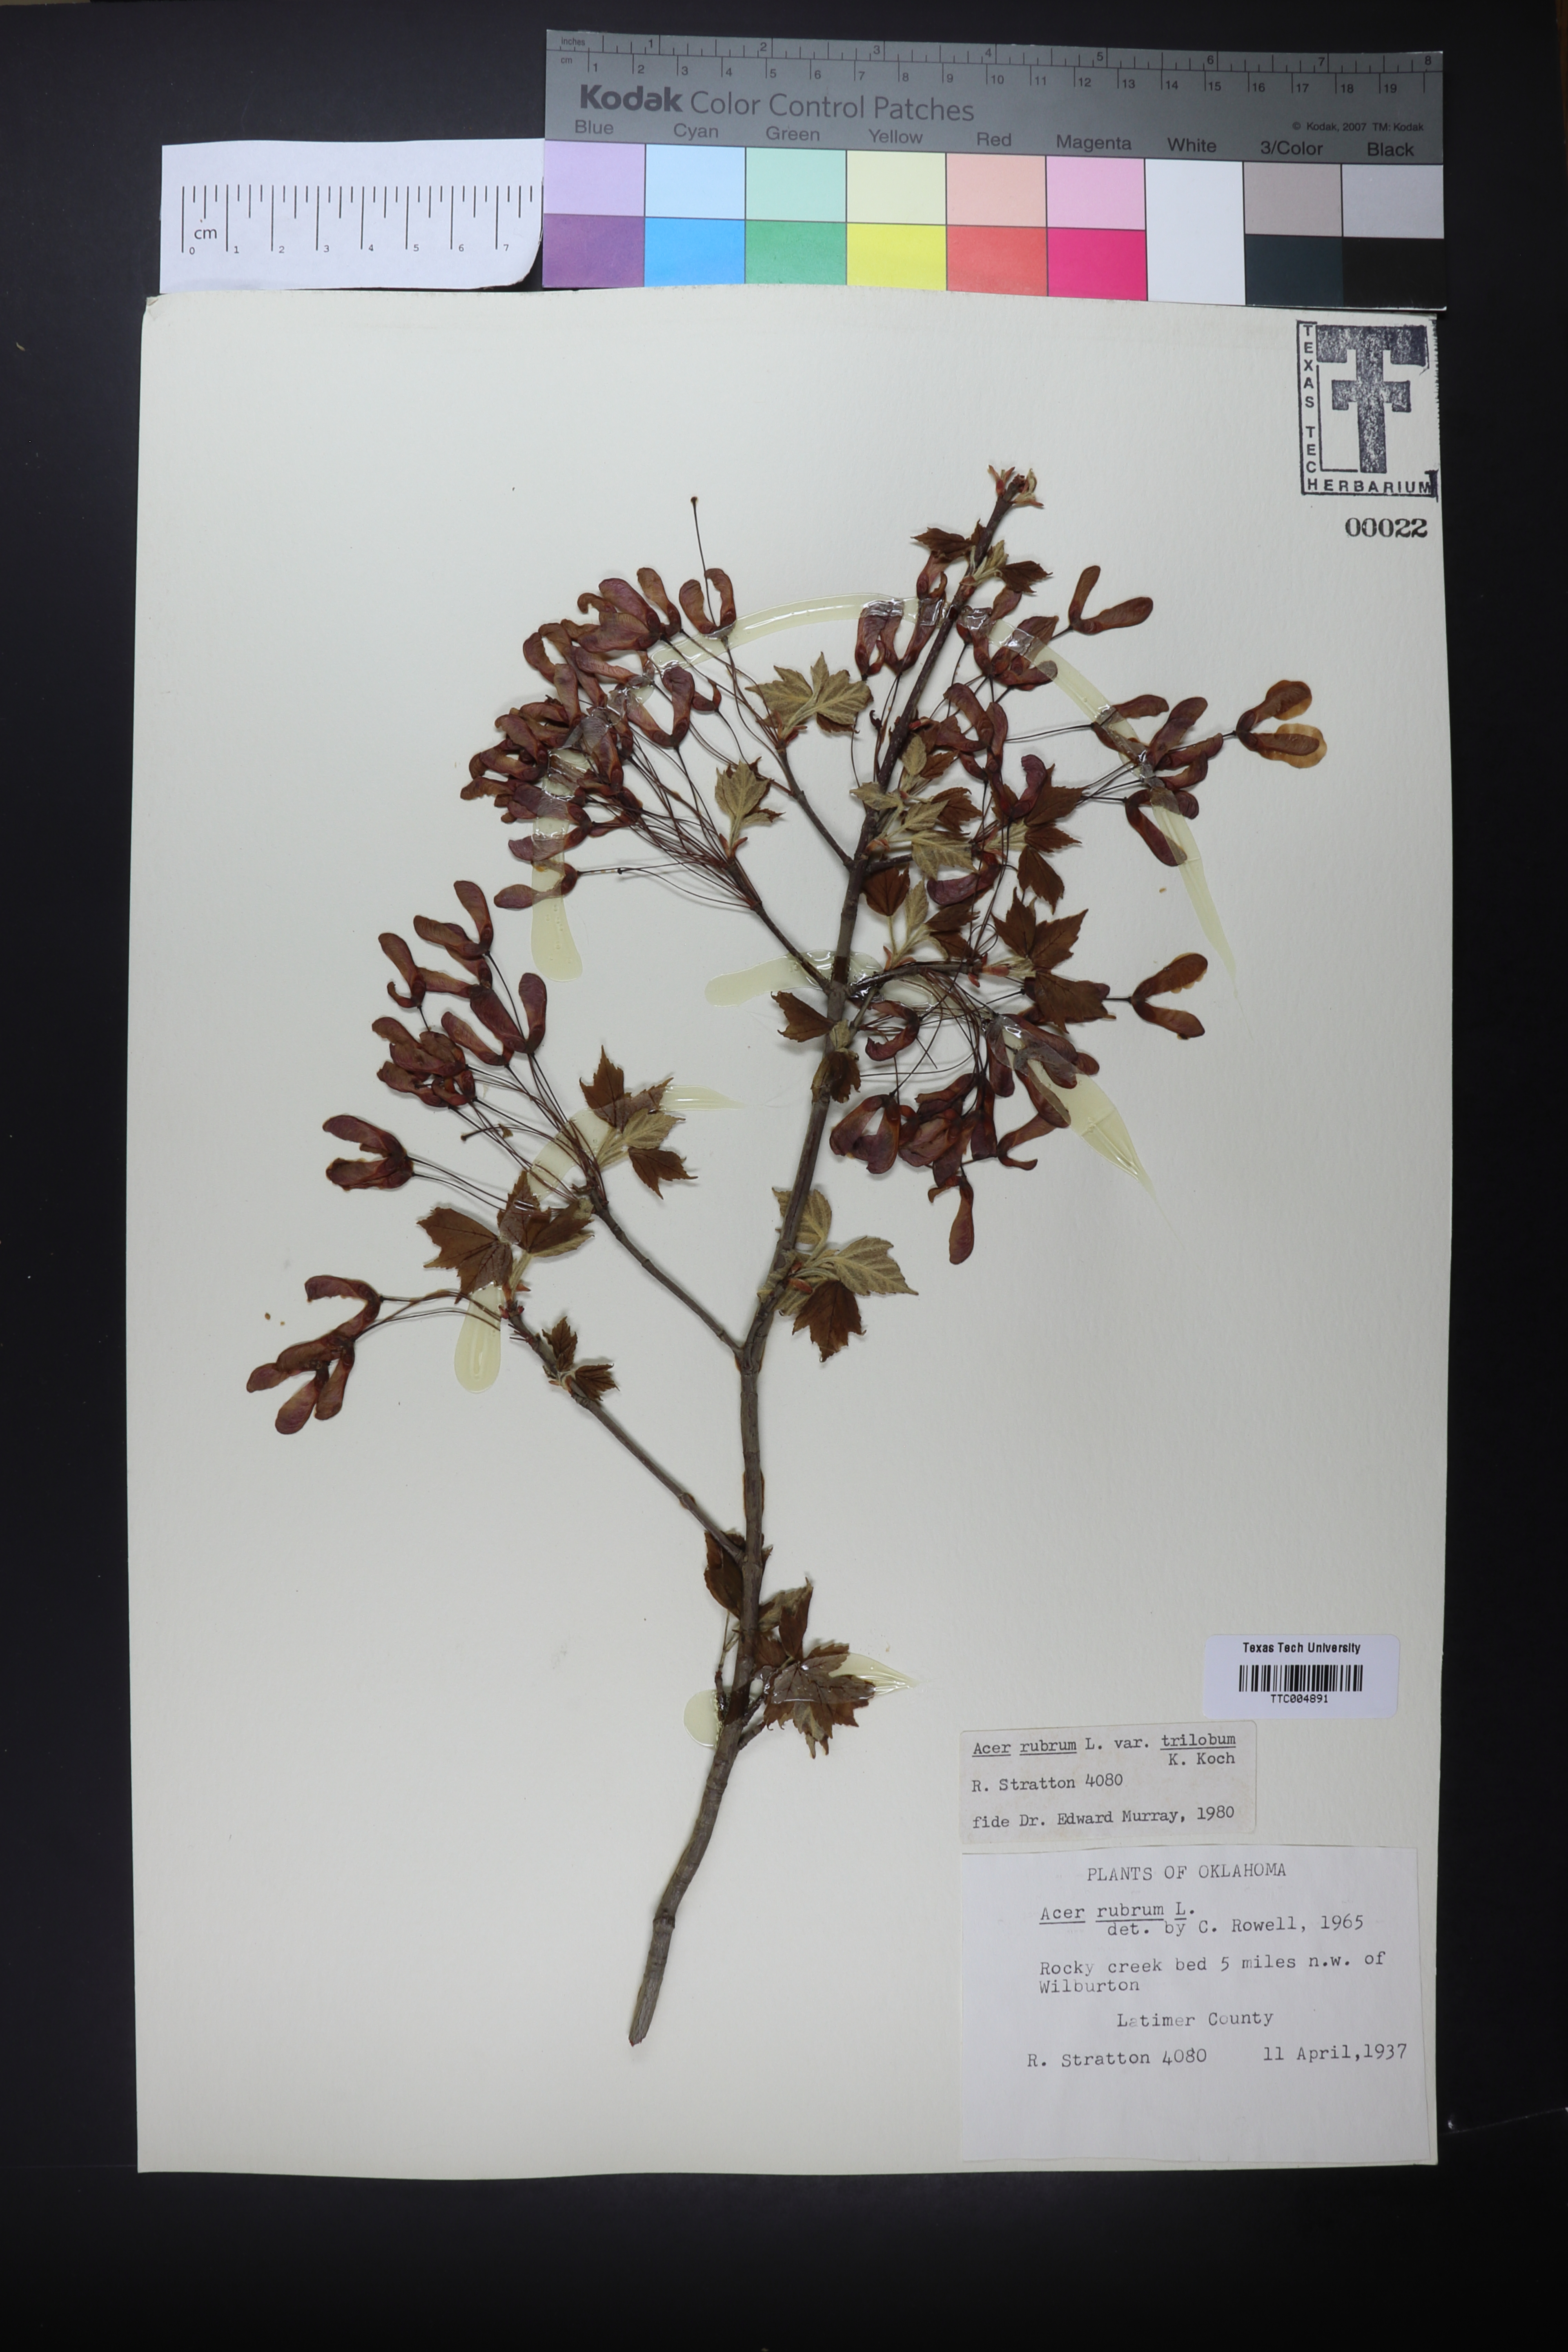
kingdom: Plantae
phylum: Tracheophyta
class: Magnoliopsida
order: Sapindales
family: Sapindaceae
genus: Acer
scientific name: Acer rubrum
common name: Red maple
